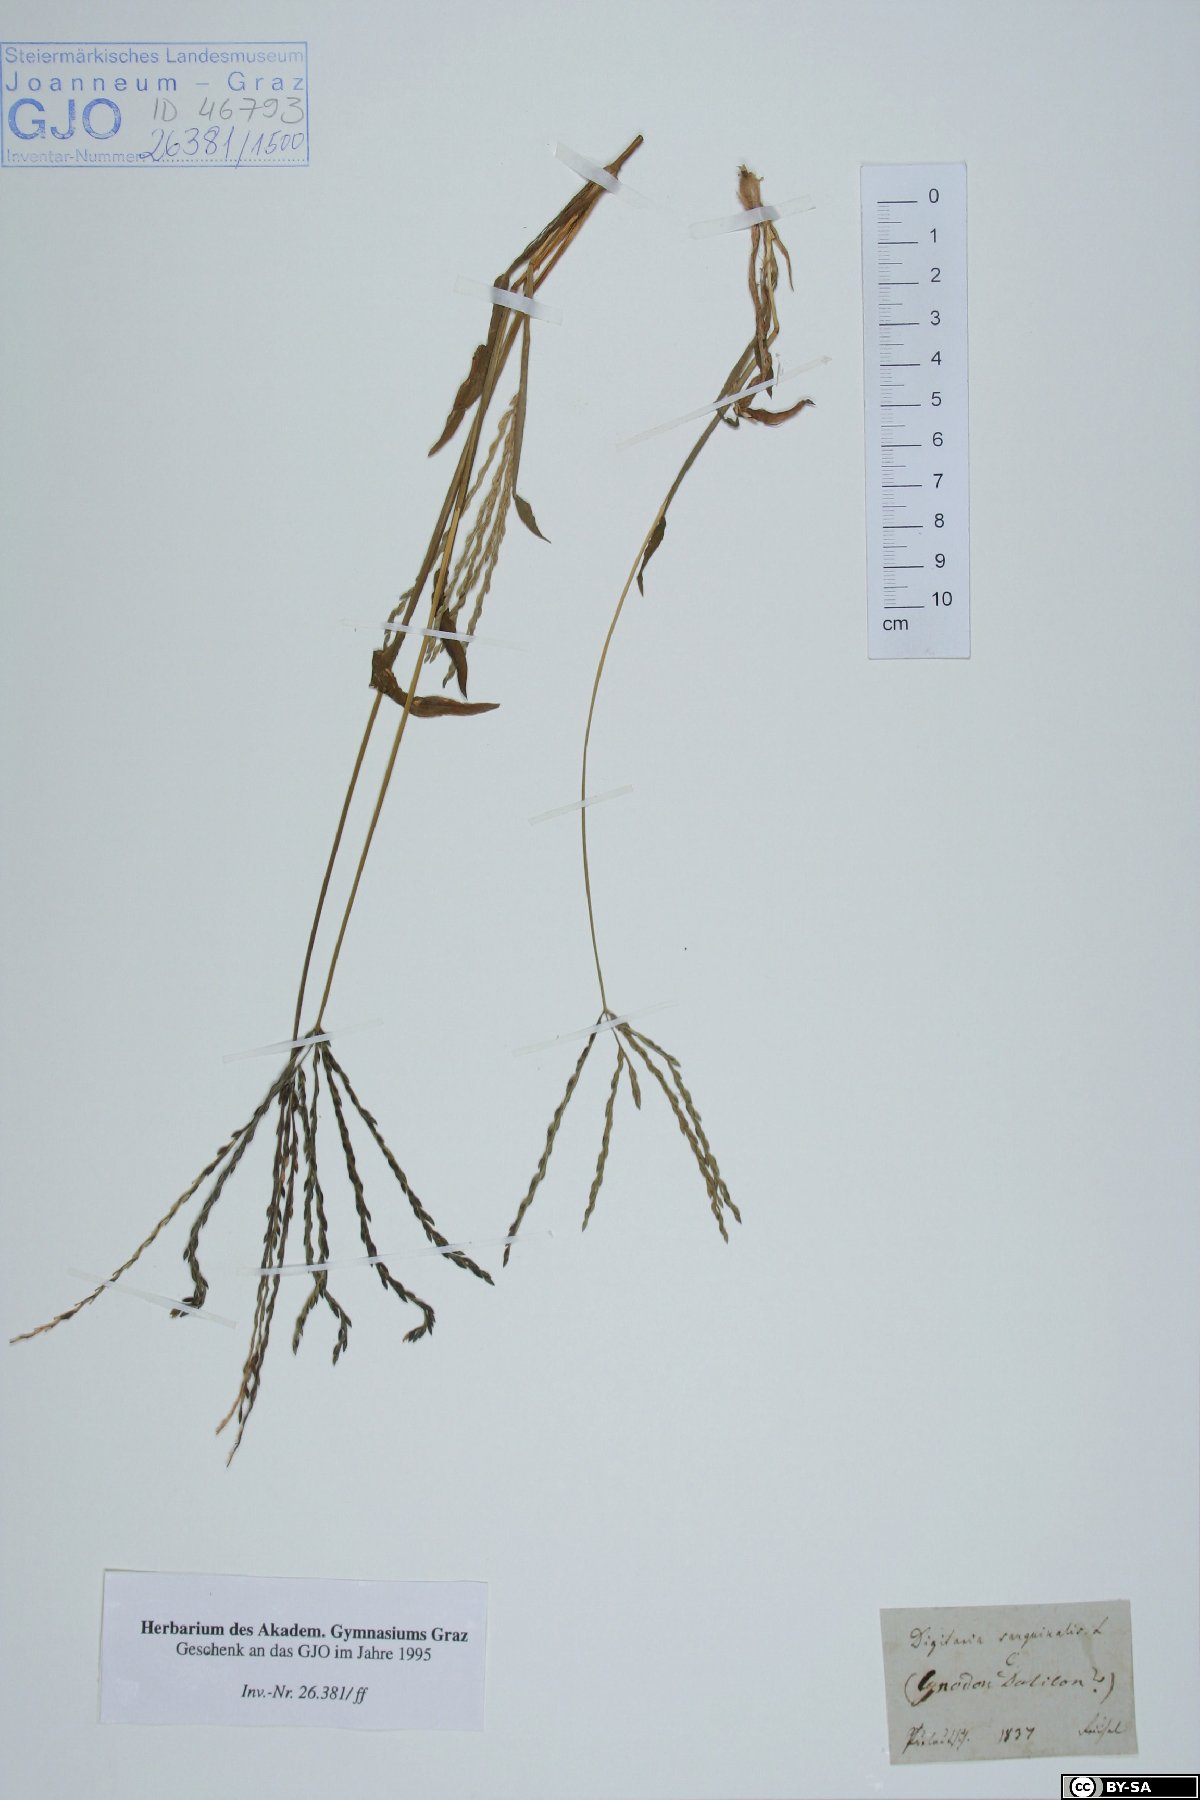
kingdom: Plantae
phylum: Tracheophyta
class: Liliopsida
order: Poales
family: Poaceae
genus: Digitaria
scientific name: Digitaria sanguinalis
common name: Hairy crabgrass
